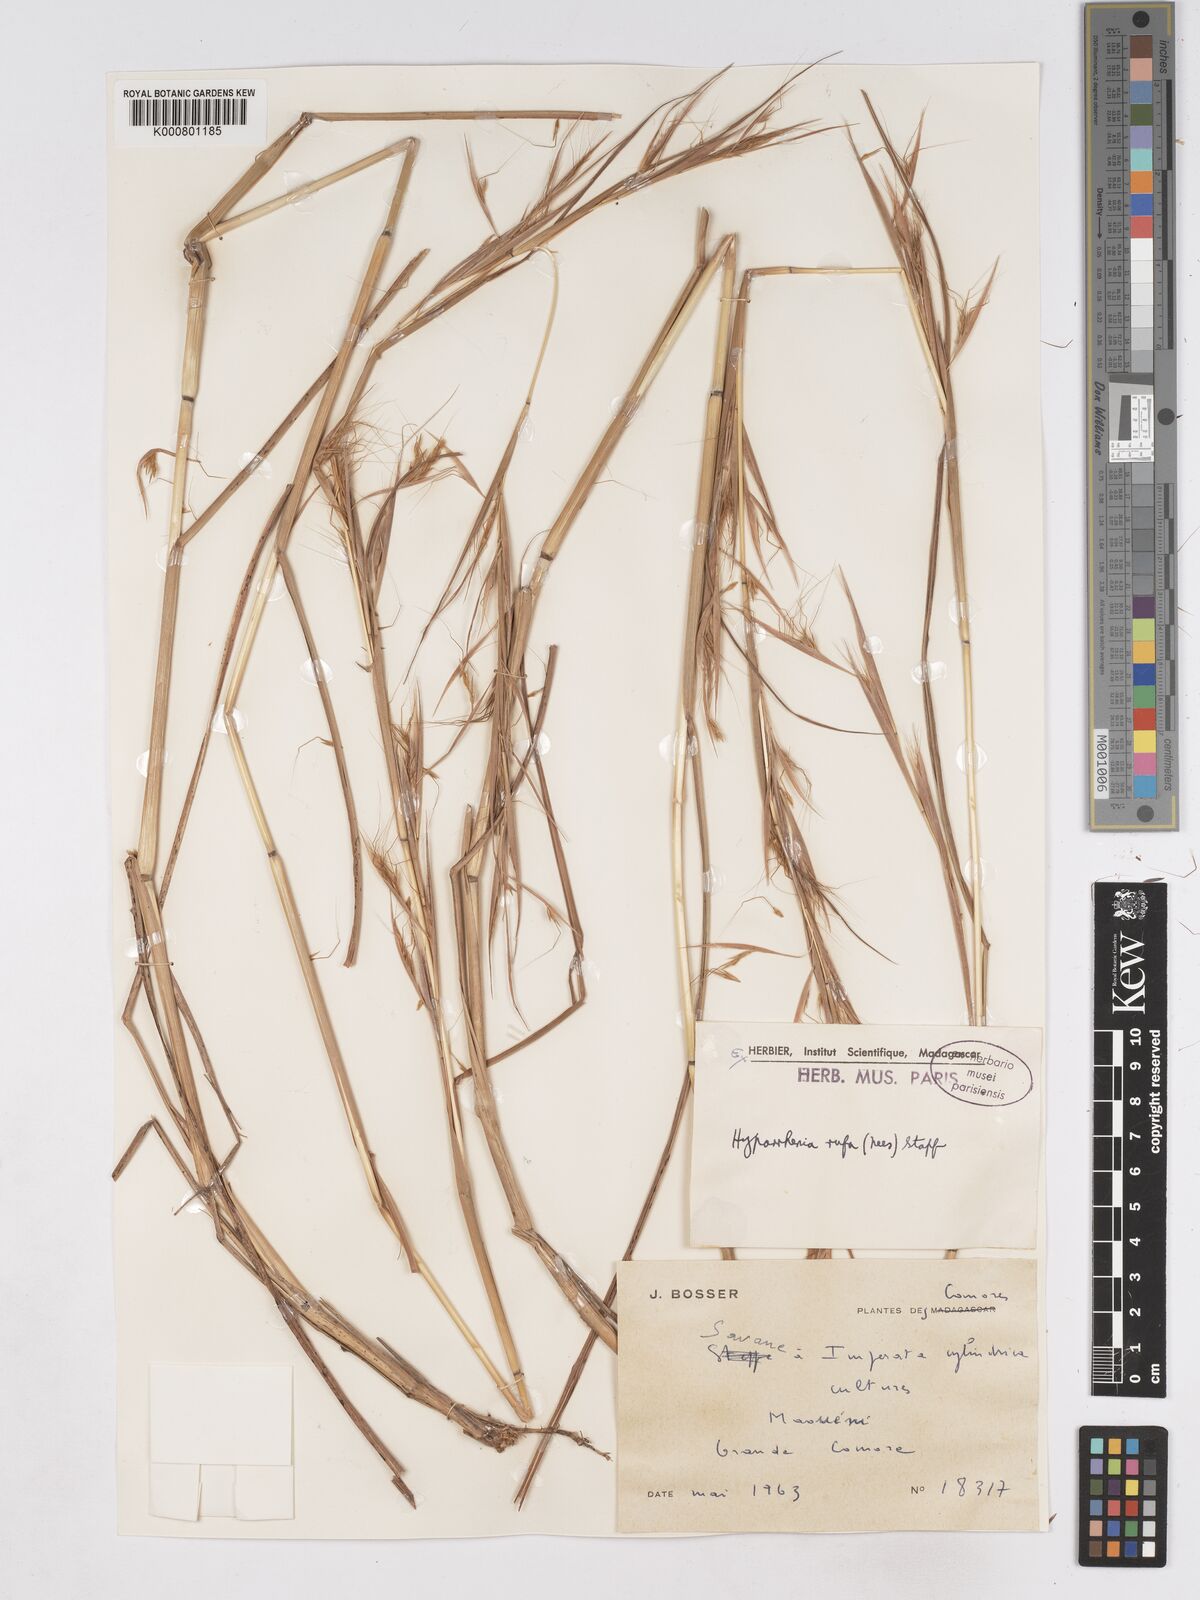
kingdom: Plantae
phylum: Tracheophyta
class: Liliopsida
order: Poales
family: Poaceae
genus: Hyparrhenia
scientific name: Hyparrhenia rufa
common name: Jaraguagrass
